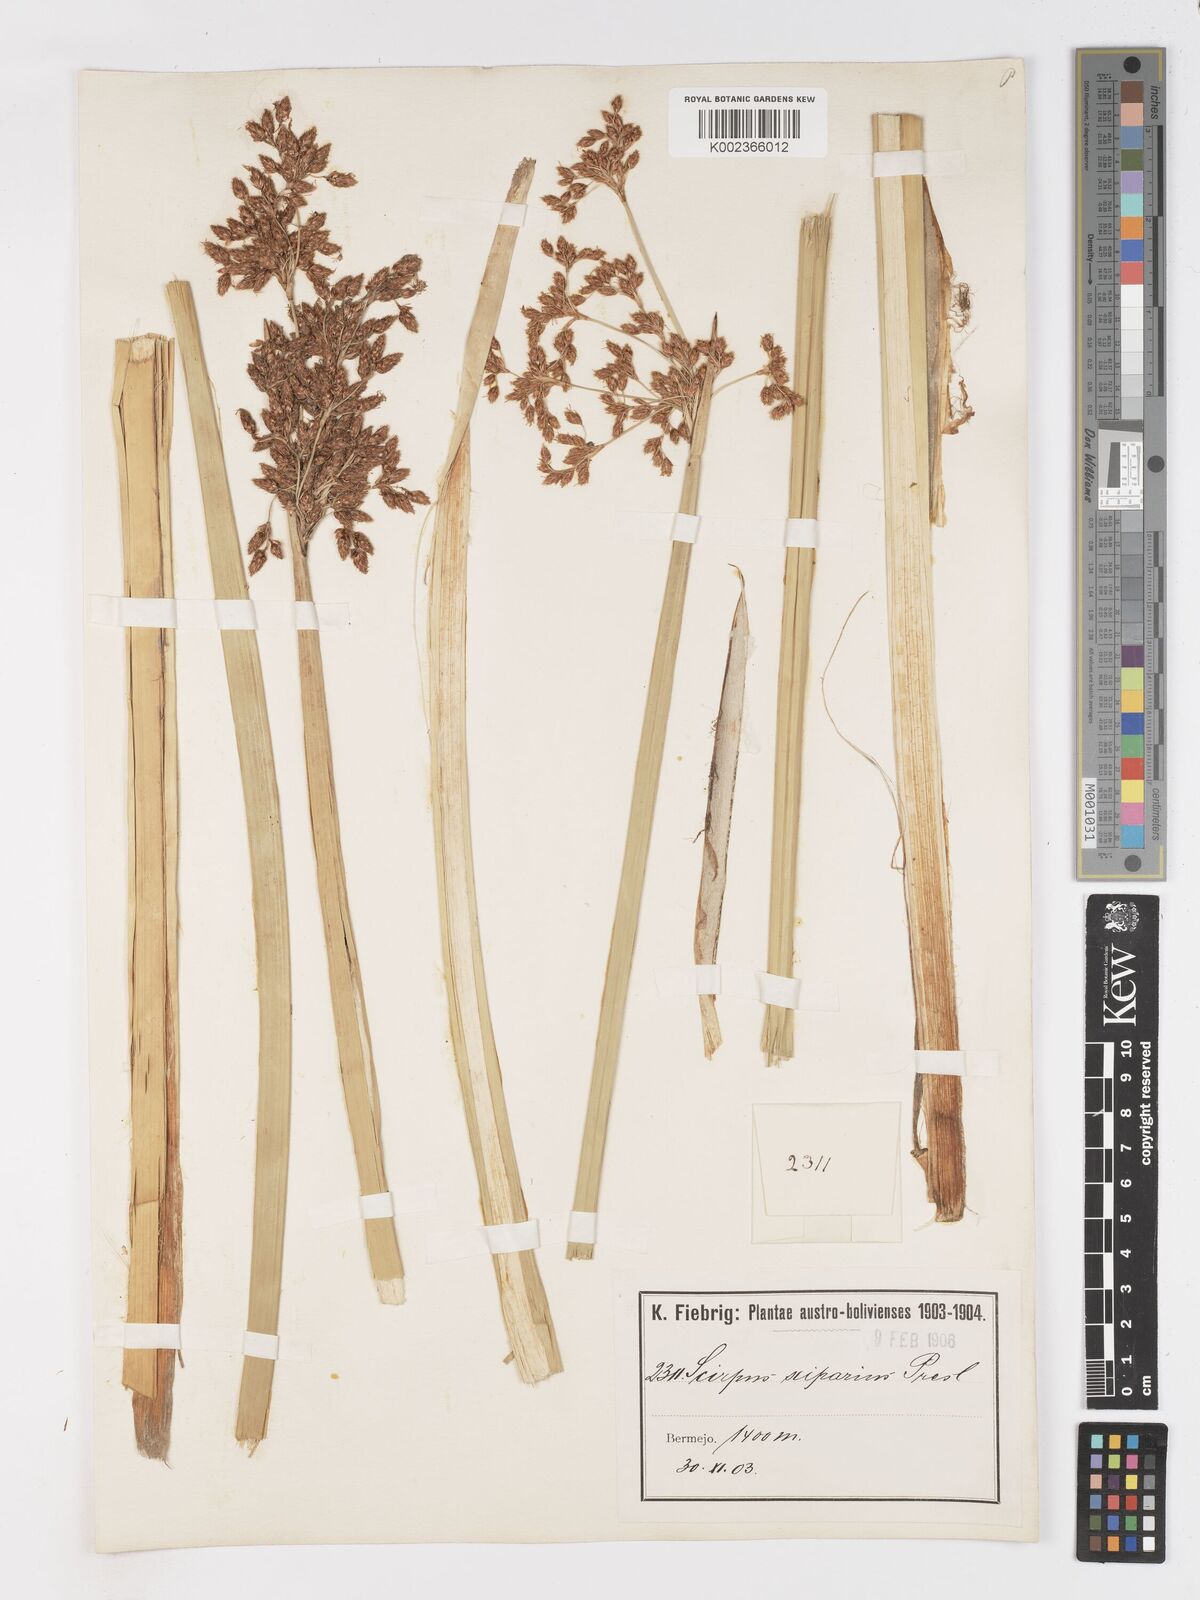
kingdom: Plantae
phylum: Tracheophyta
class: Liliopsida
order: Poales
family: Cyperaceae
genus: Schoenoplectus
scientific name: Schoenoplectus californicus
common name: California bulrush
